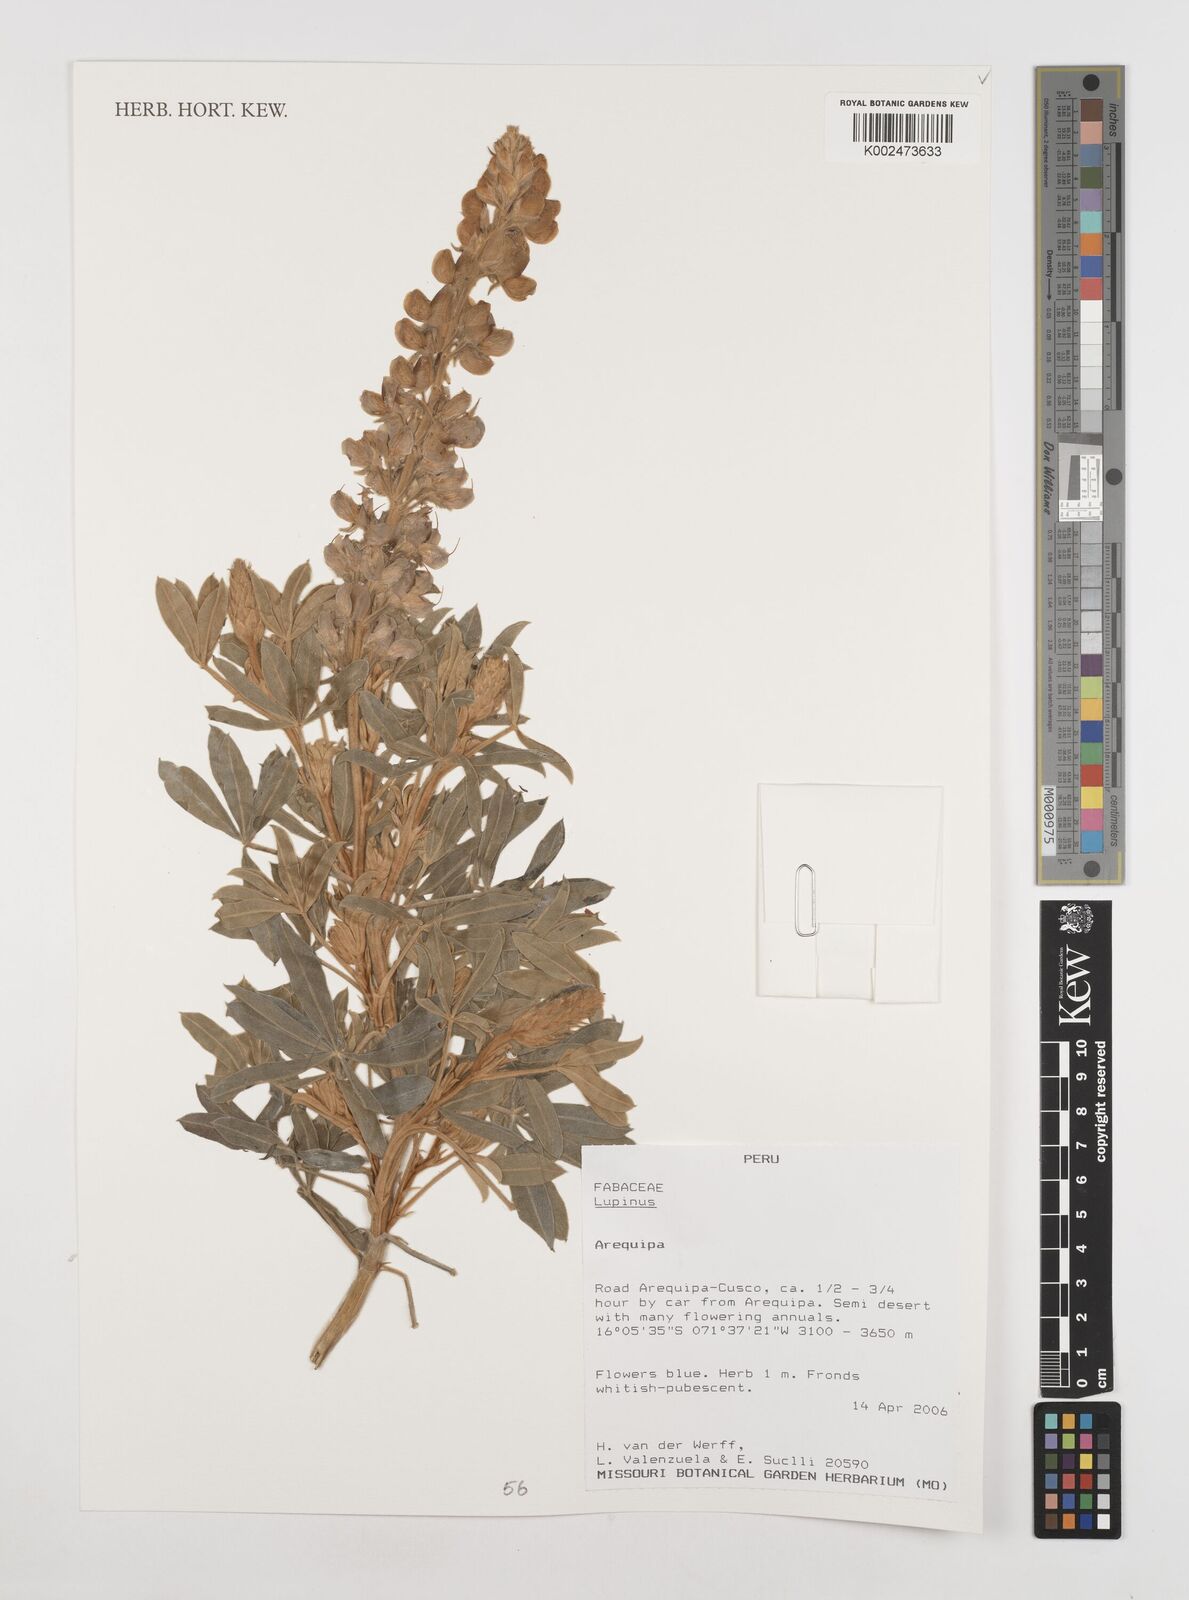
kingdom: Plantae
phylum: Tracheophyta
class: Magnoliopsida
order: Fabales
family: Fabaceae
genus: Lupinus
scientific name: Lupinus
